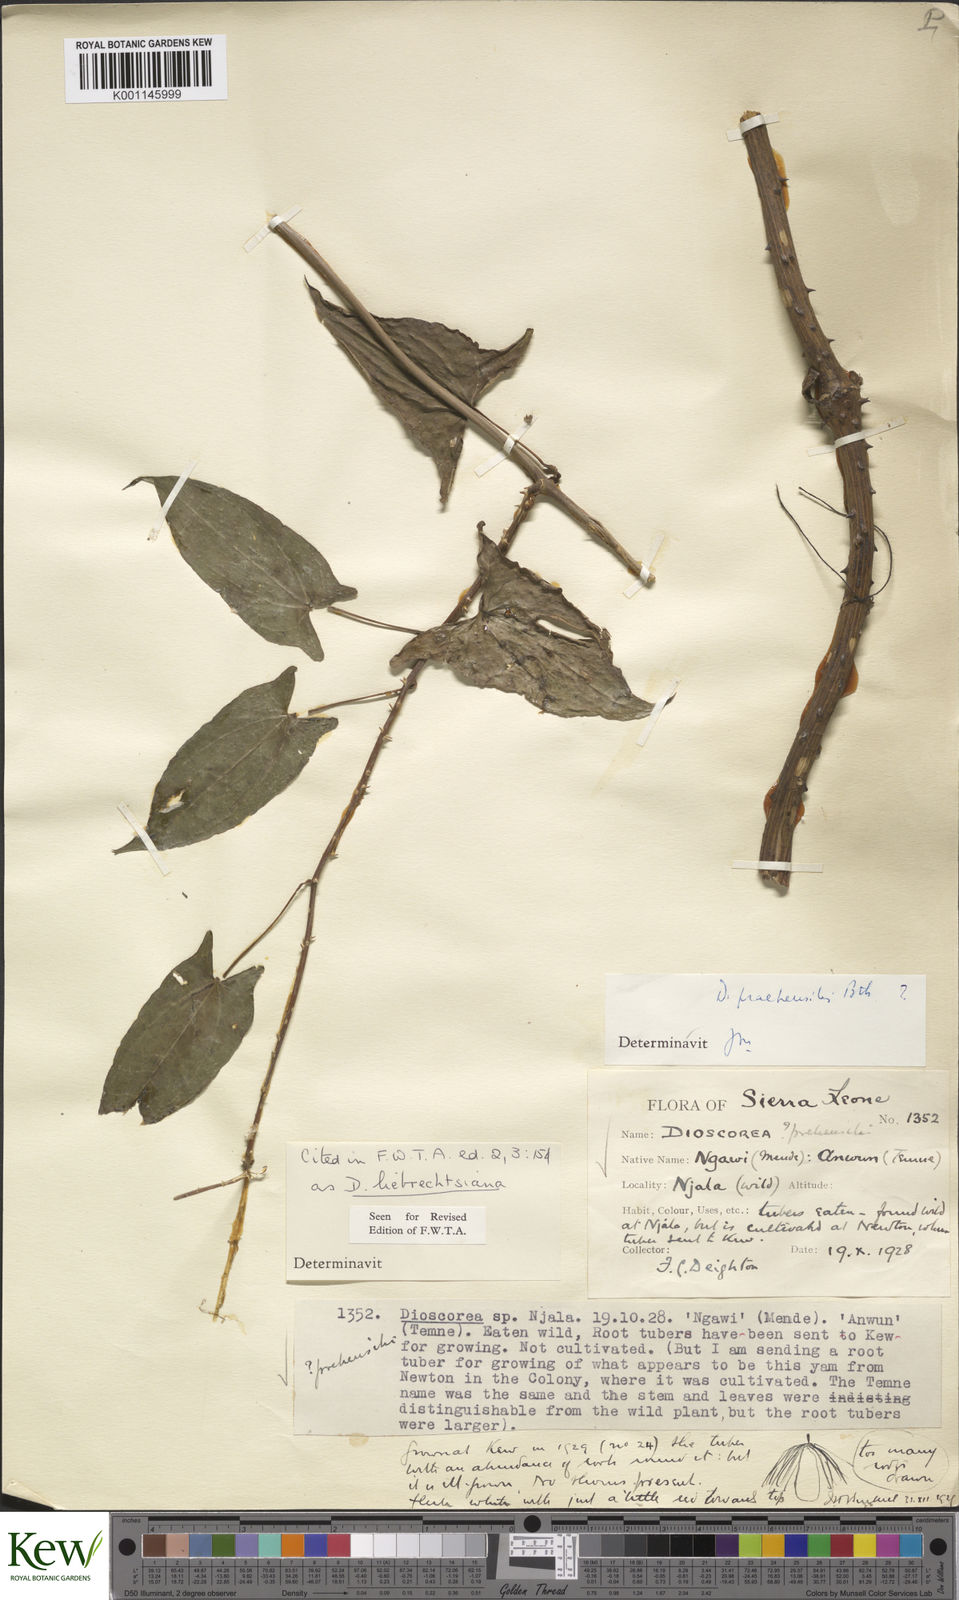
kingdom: Plantae
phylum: Tracheophyta
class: Liliopsida
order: Dioscoreales
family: Dioscoreaceae
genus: Dioscorea
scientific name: Dioscorea praehensilis
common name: Bush yam
